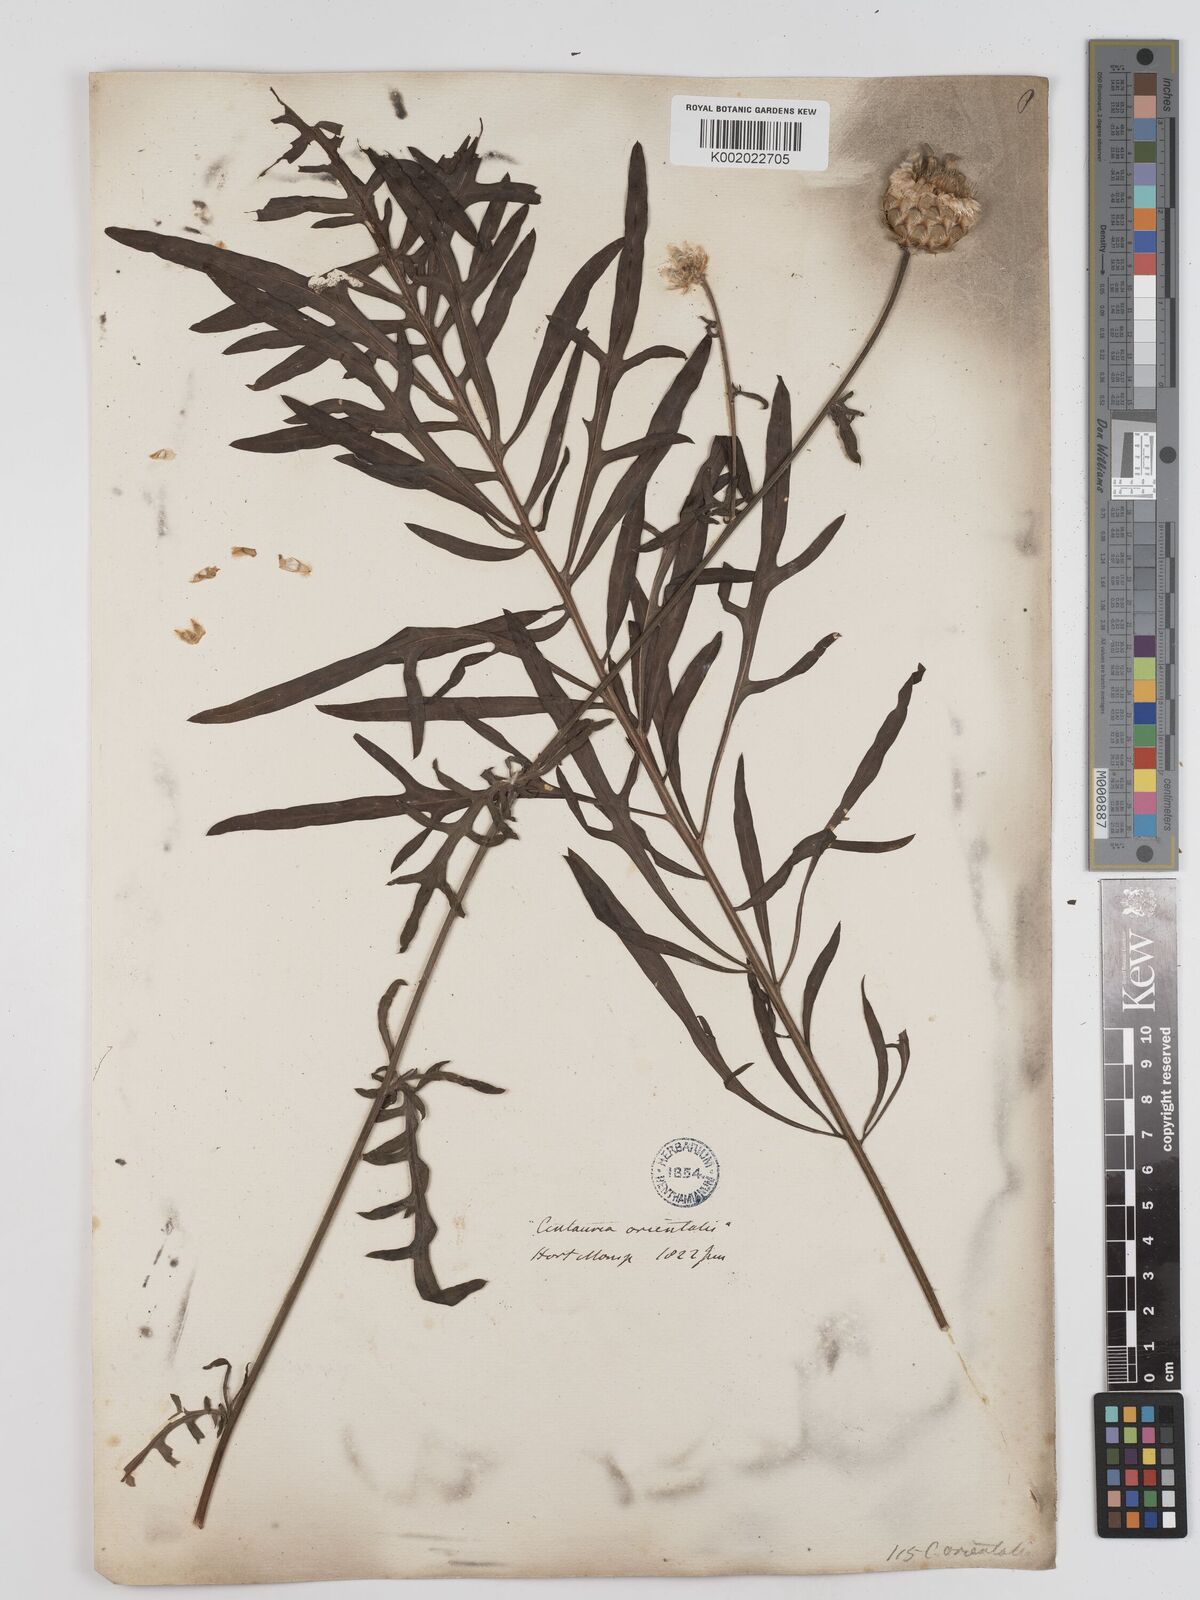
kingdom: Plantae
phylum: Tracheophyta
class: Magnoliopsida
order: Asterales
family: Asteraceae
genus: Centaurea
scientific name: Centaurea orientalis
